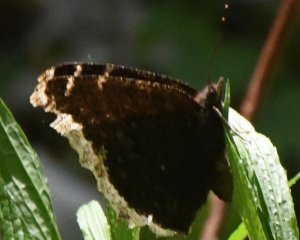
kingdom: Animalia
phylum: Arthropoda
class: Insecta
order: Lepidoptera
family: Nymphalidae
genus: Nymphalis
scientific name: Nymphalis antiopa
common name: Mourning Cloak
